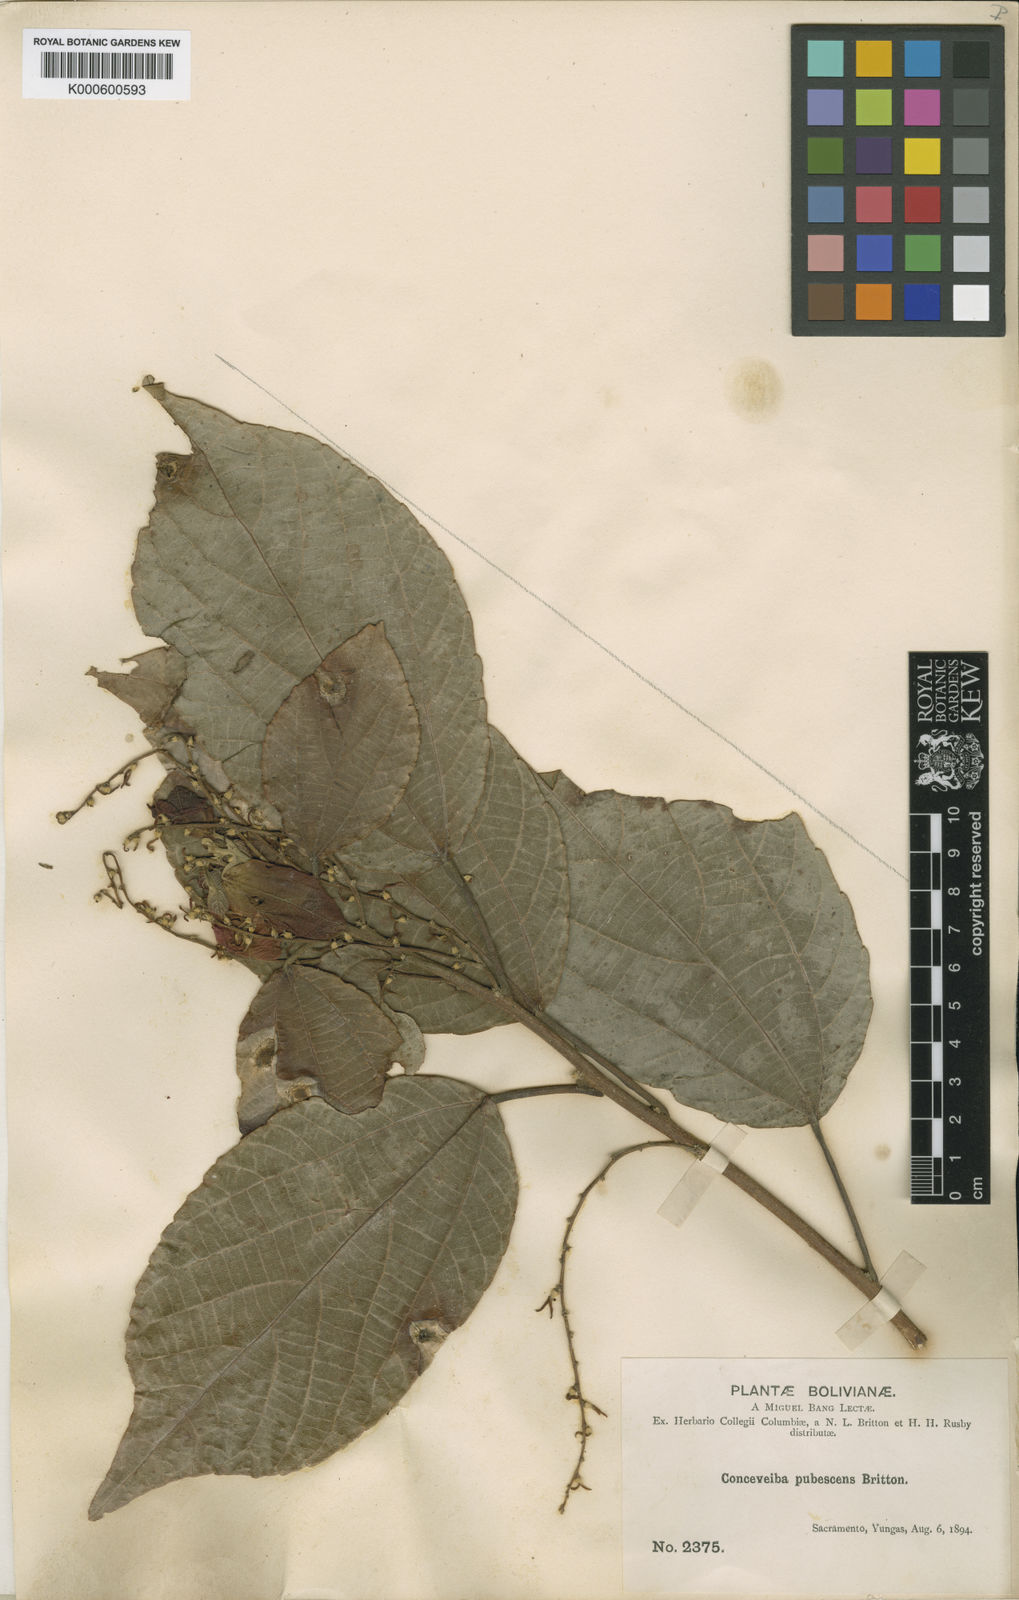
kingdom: Plantae
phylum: Tracheophyta
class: Magnoliopsida
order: Malpighiales
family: Euphorbiaceae
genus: Alchornea
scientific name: Alchornea glandulosa
